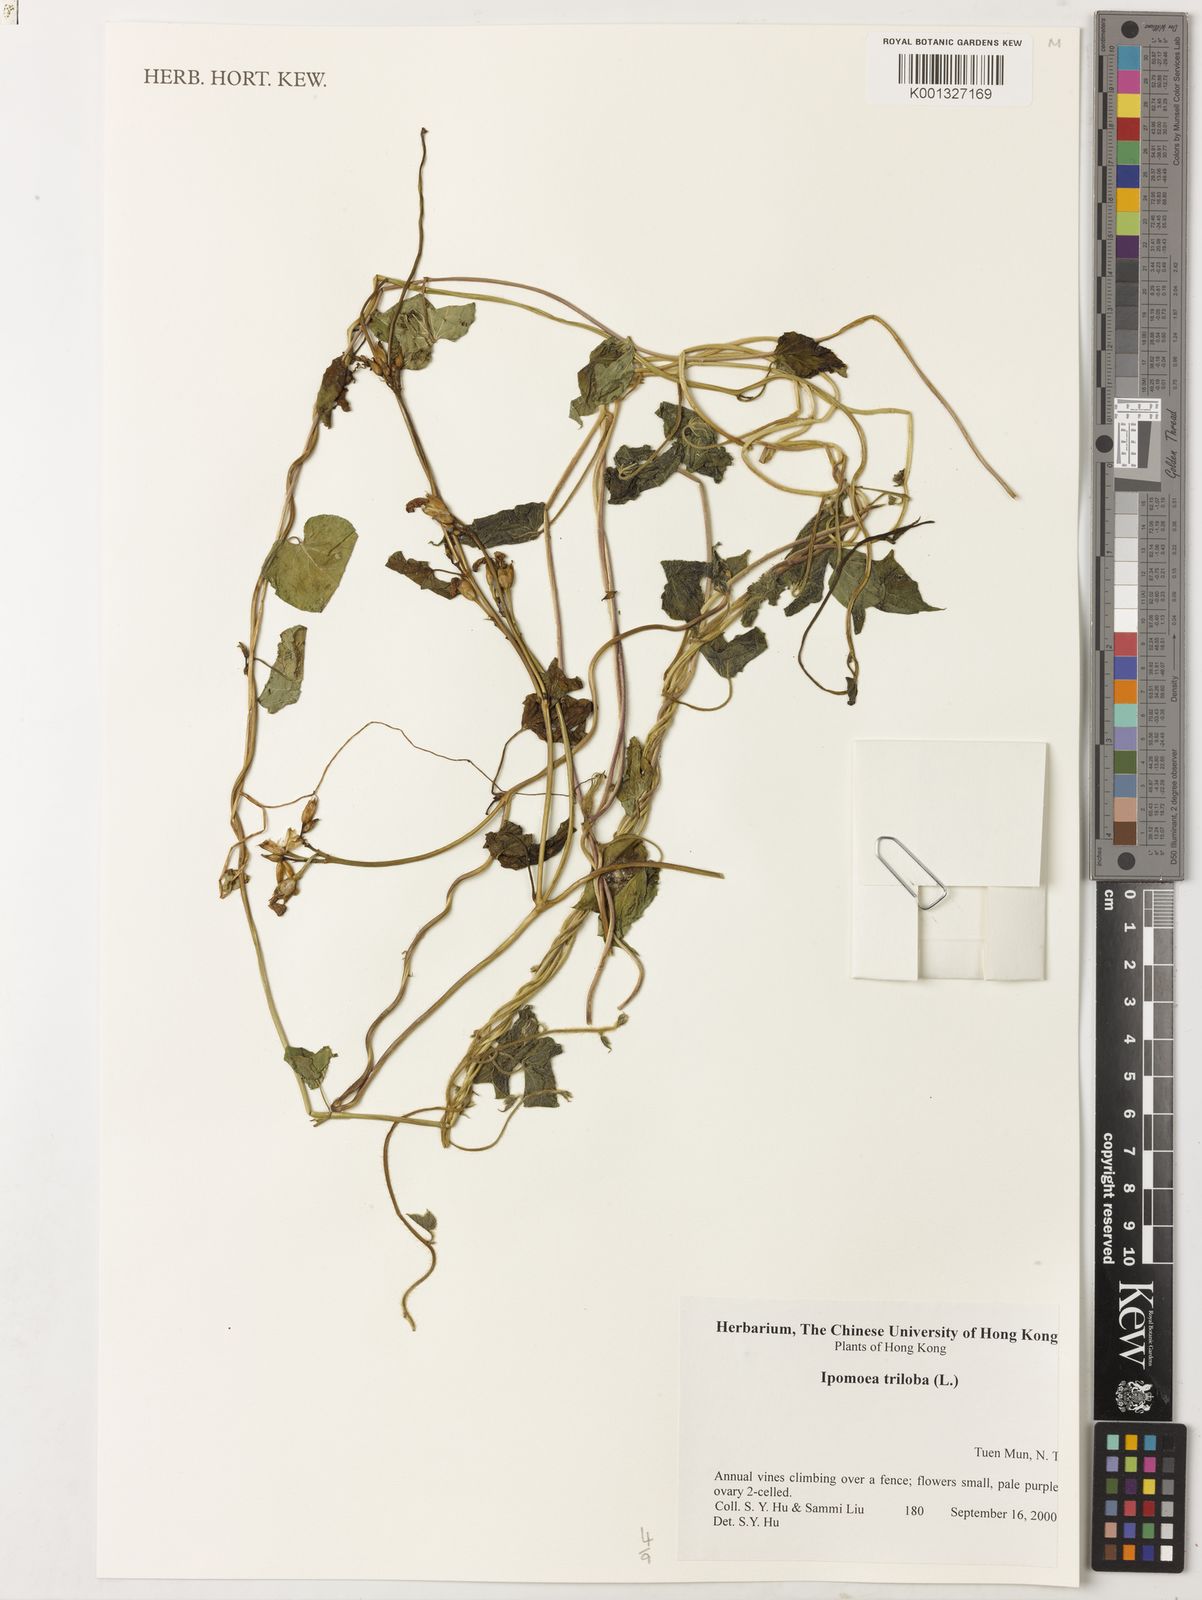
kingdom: Plantae
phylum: Tracheophyta
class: Magnoliopsida
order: Solanales
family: Convolvulaceae
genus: Ipomoea
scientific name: Ipomoea triloba
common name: Little-bell
